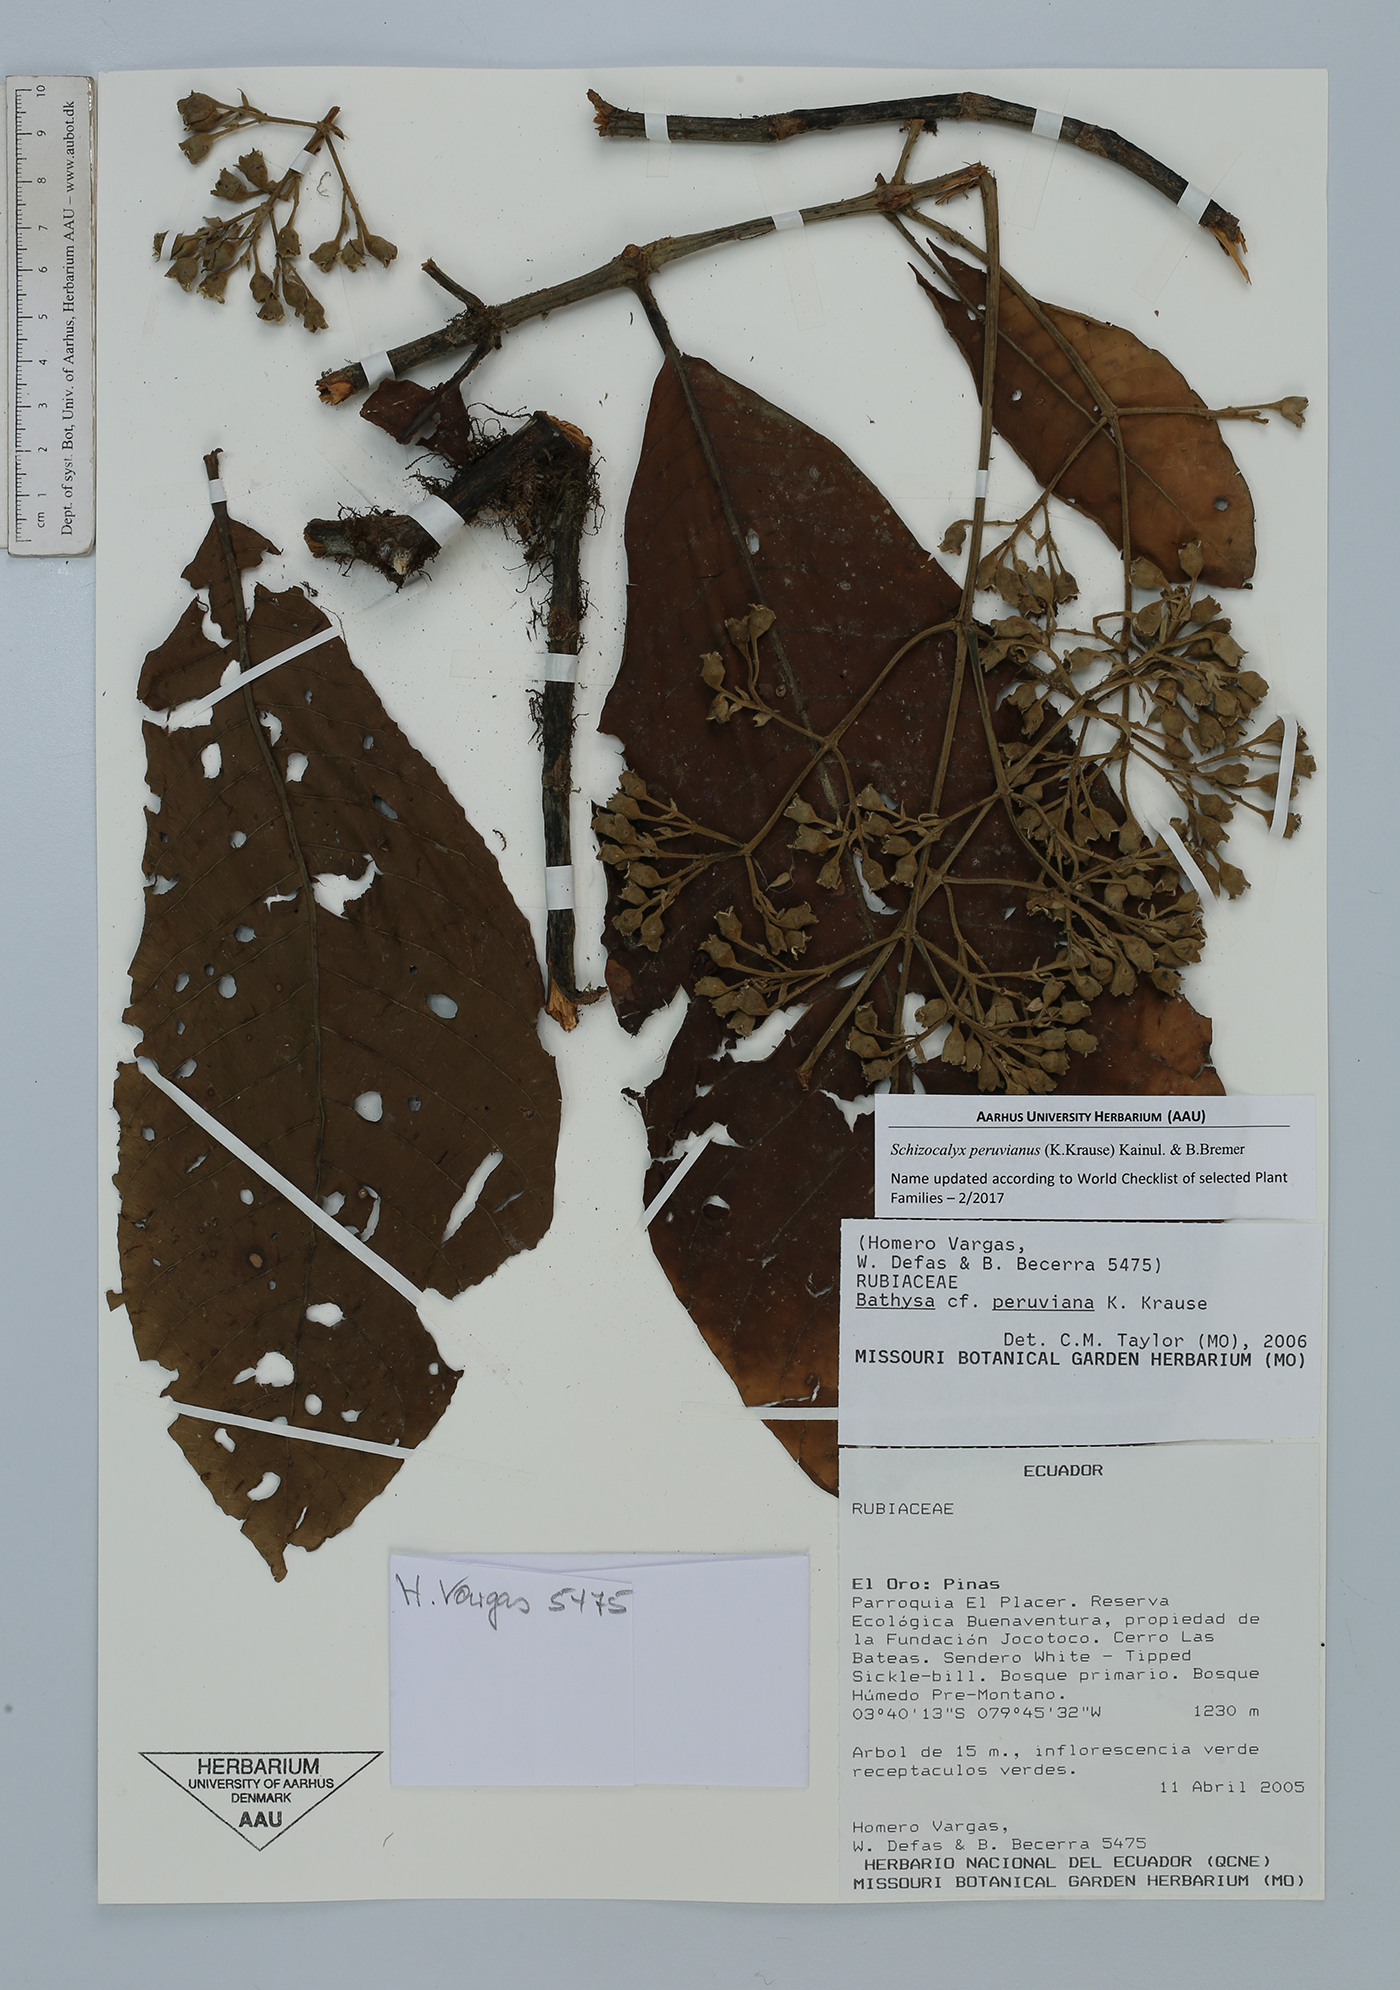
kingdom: Plantae
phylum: Tracheophyta
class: Magnoliopsida
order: Gentianales
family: Rubiaceae
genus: Schizocalyx
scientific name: Schizocalyx peruvianus
